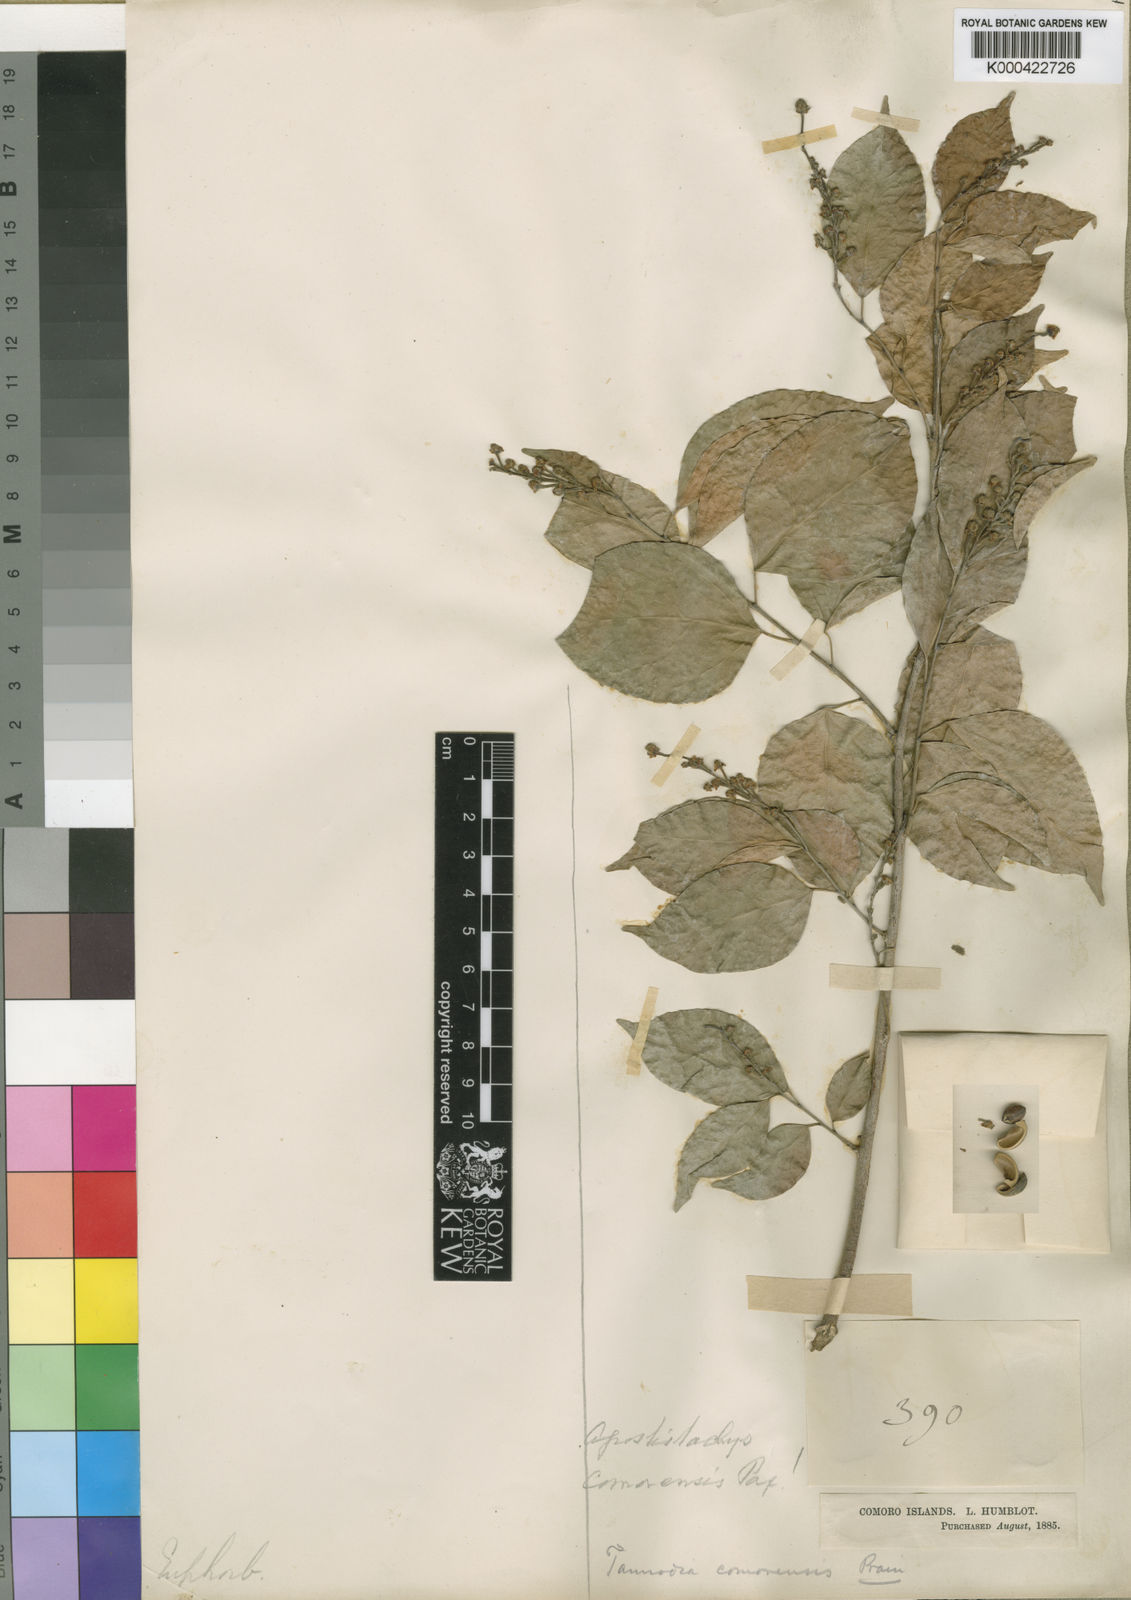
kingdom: Plantae
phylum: Tracheophyta
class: Magnoliopsida
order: Malpighiales
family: Euphorbiaceae
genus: Tannodia
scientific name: Tannodia cordifolia
